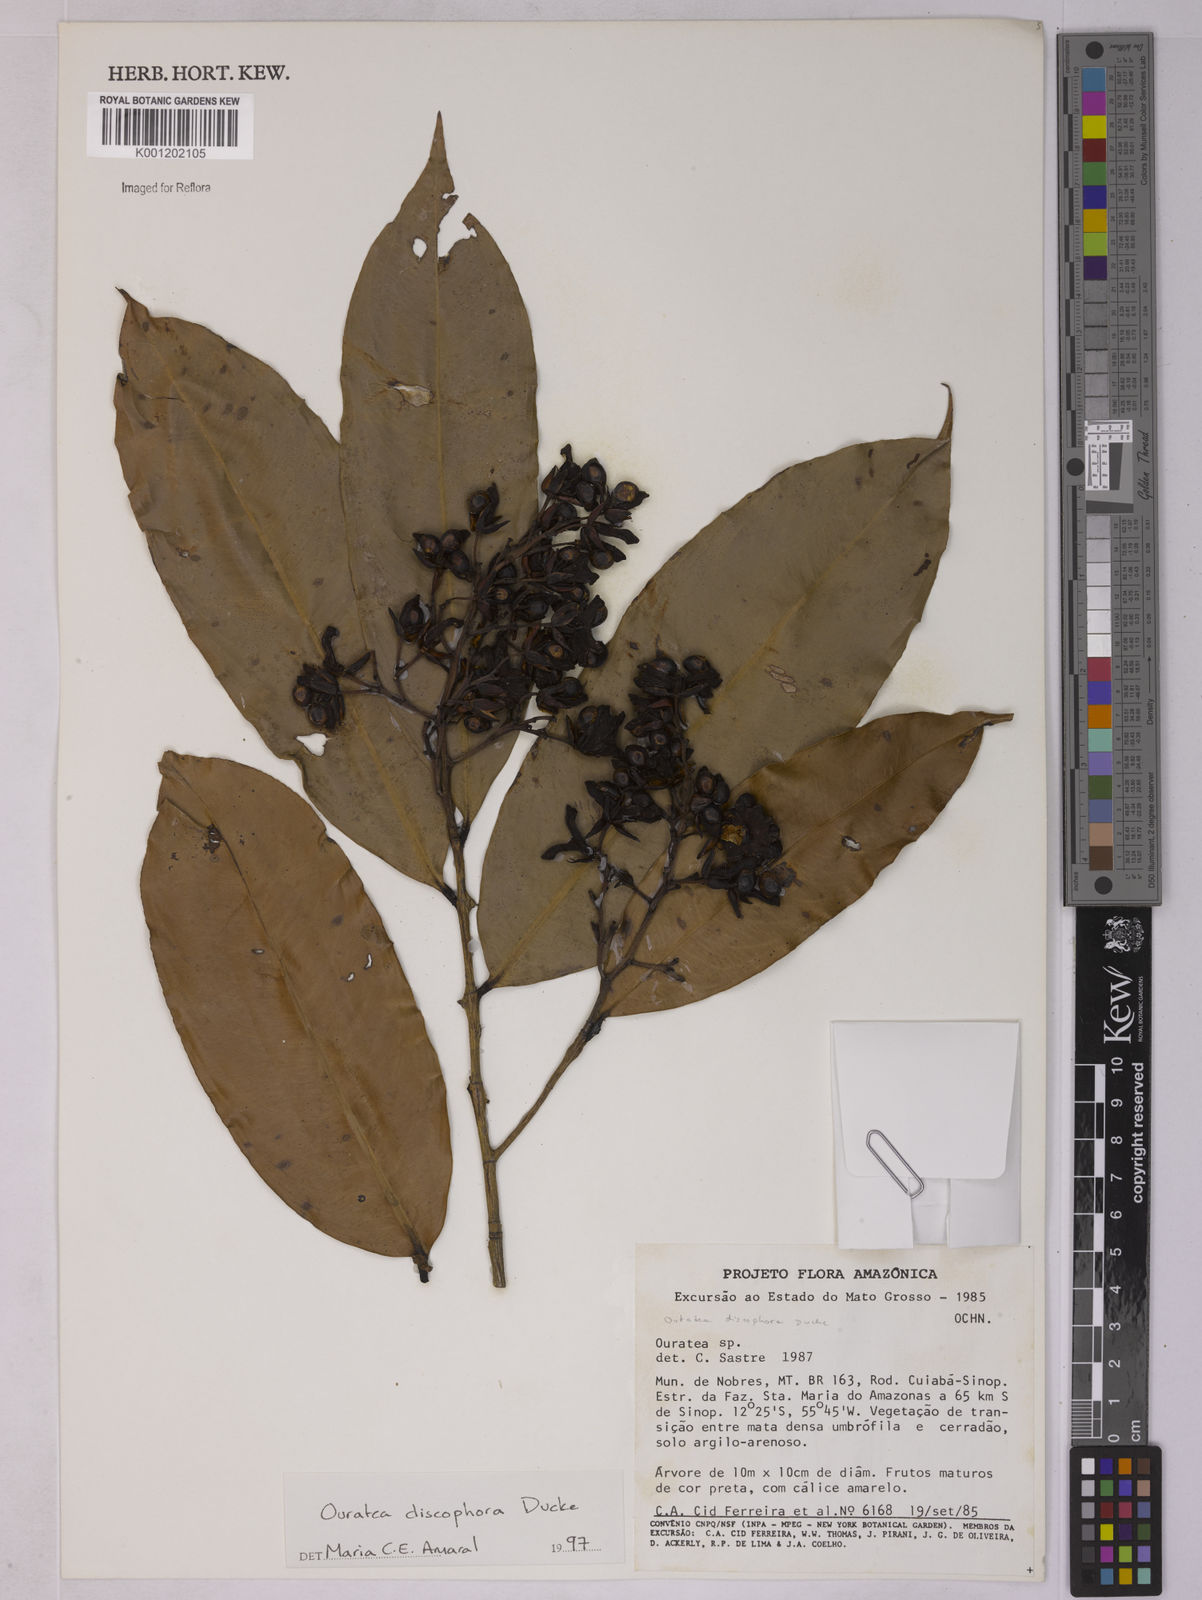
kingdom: Plantae
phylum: Tracheophyta
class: Magnoliopsida
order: Malpighiales
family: Ochnaceae
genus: Ouratea
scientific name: Ouratea discophora
